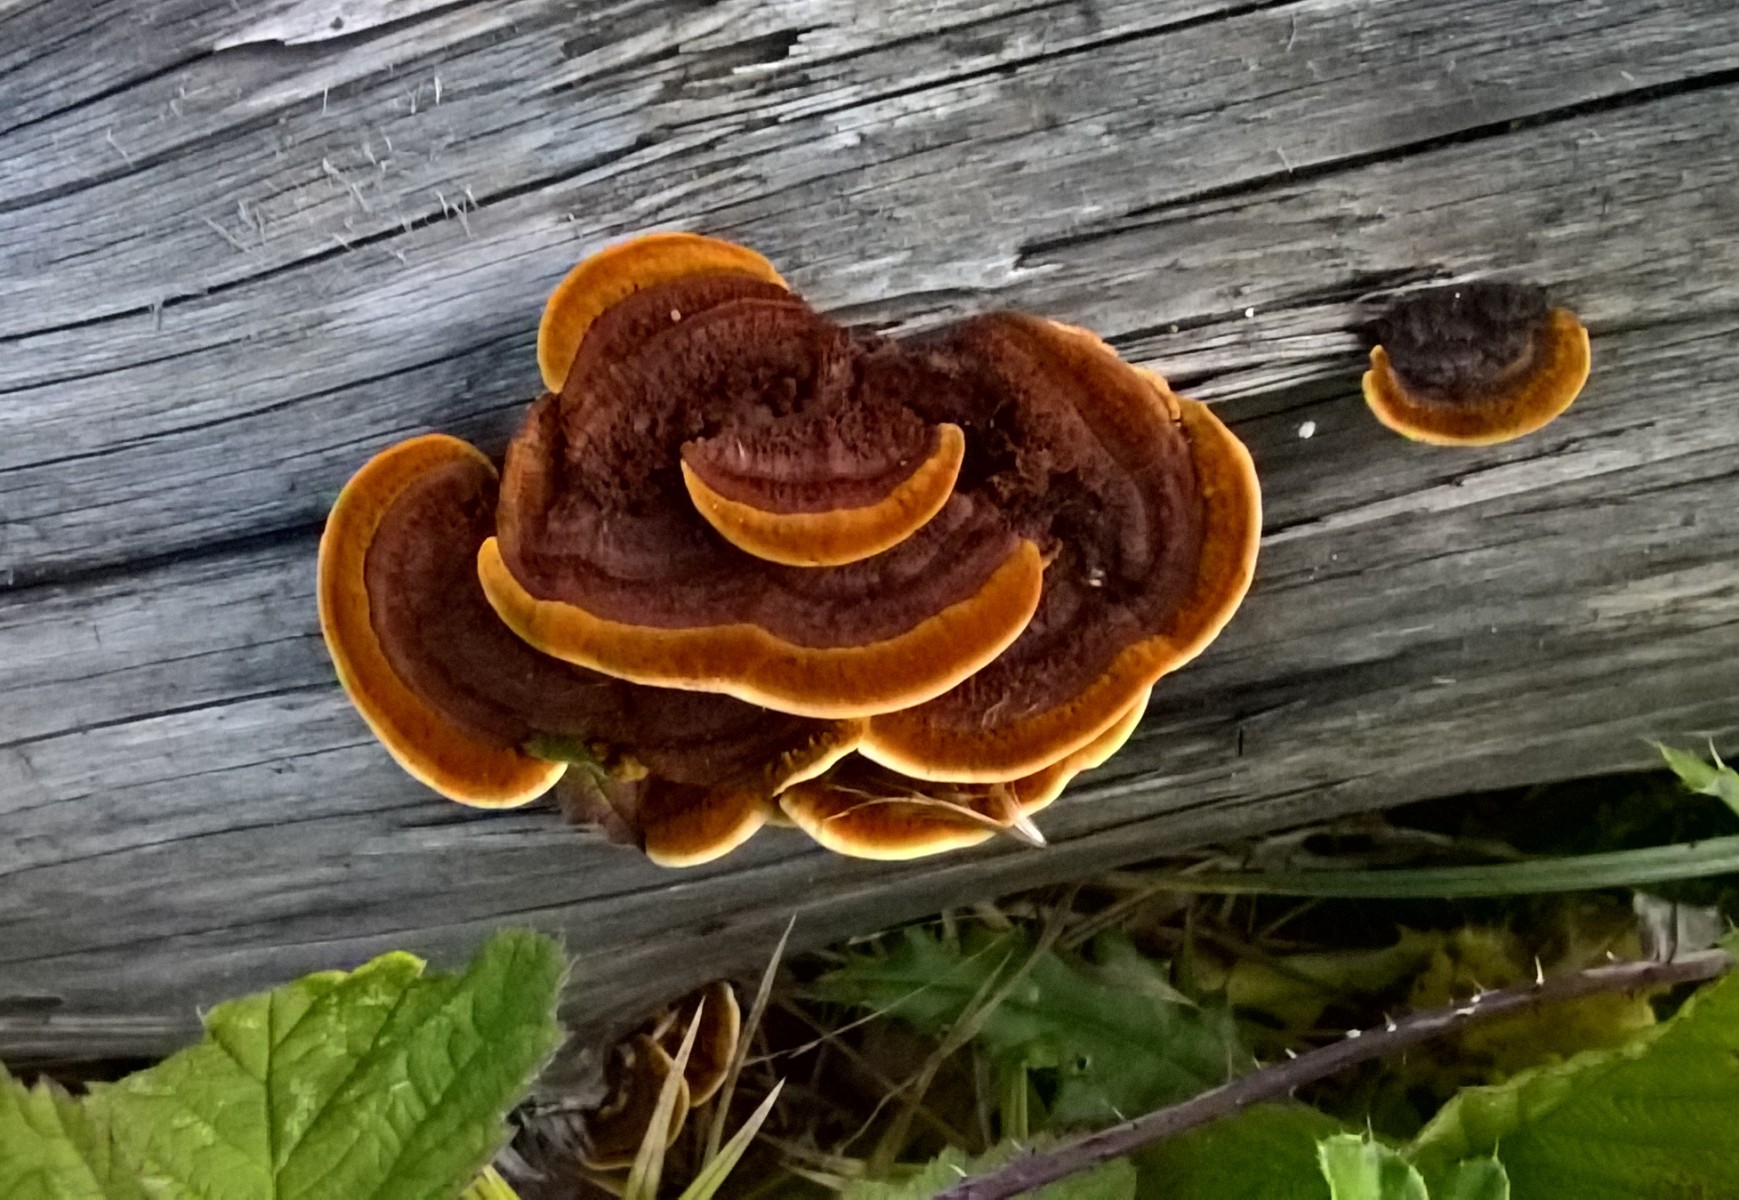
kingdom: Fungi
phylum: Basidiomycota
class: Agaricomycetes
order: Gloeophyllales
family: Gloeophyllaceae
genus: Gloeophyllum
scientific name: Gloeophyllum sepiarium
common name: fyrre-korkhat
